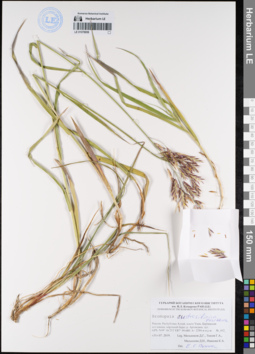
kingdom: Plantae
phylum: Tracheophyta
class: Liliopsida
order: Poales
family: Poaceae
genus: Bromus
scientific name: Bromus pumpellianus
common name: Pumpelly's brome
